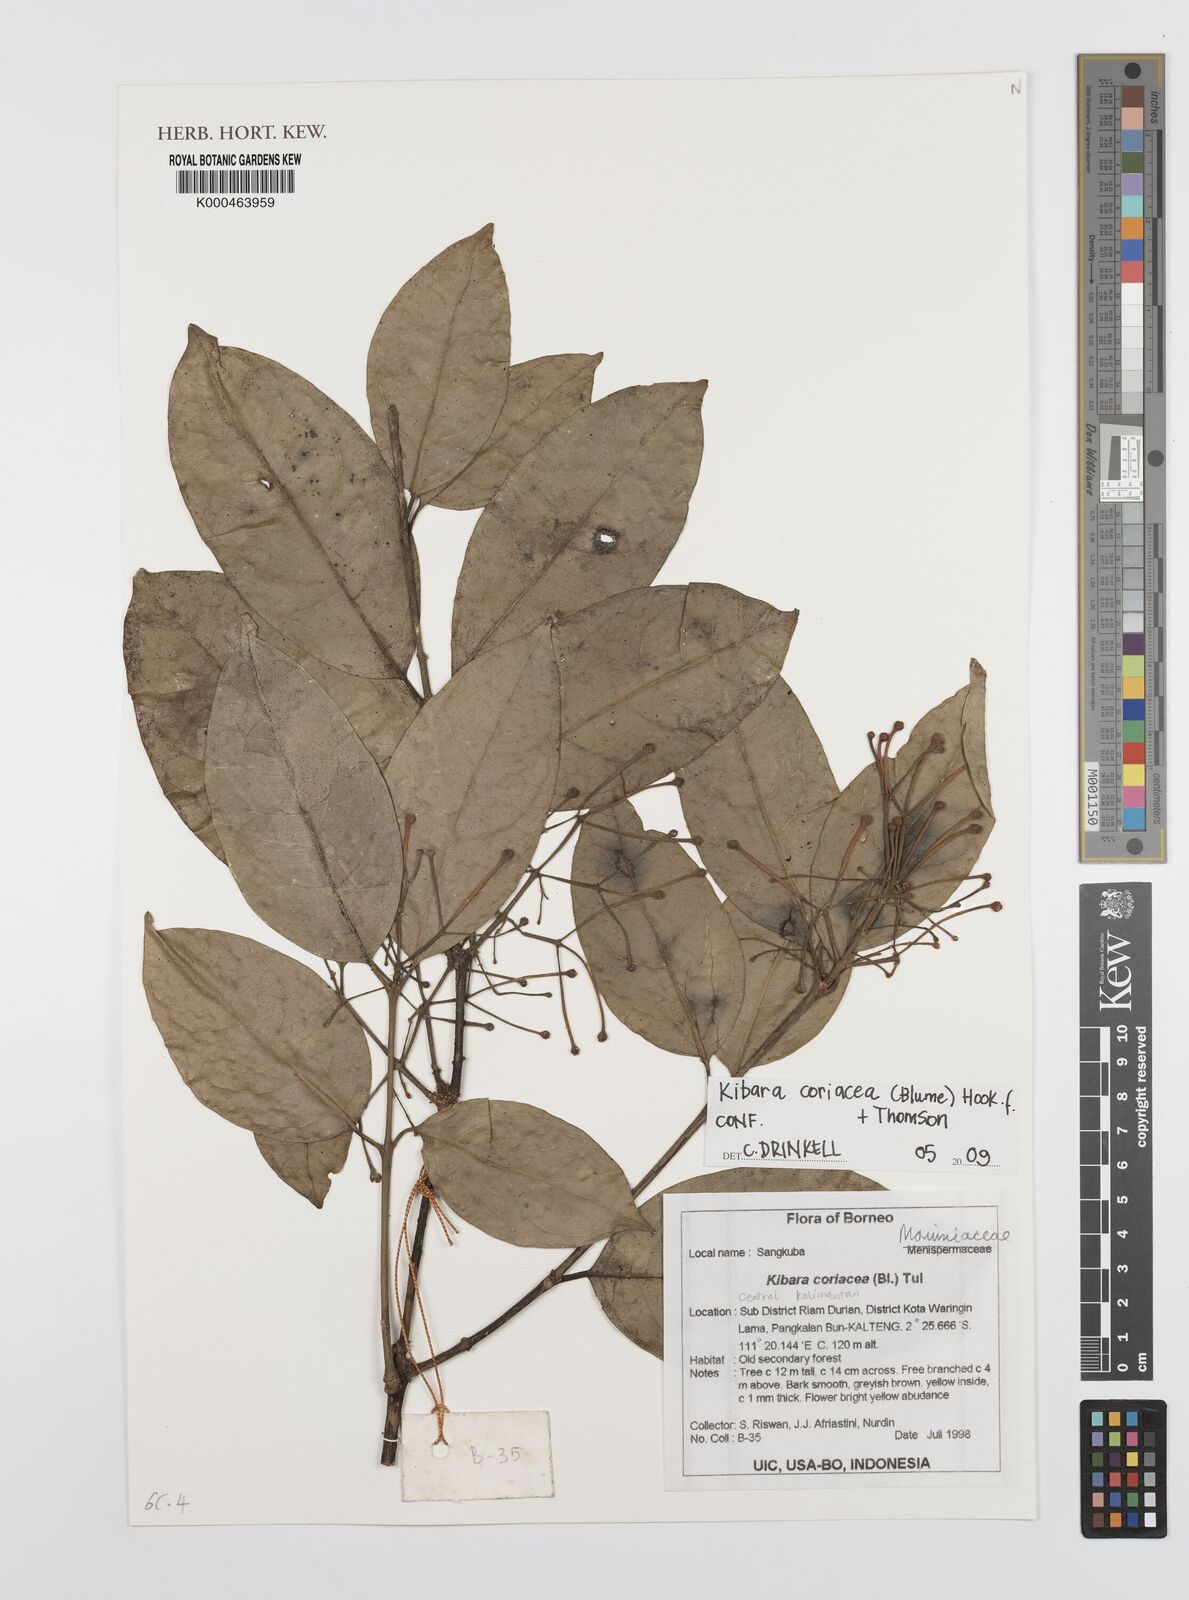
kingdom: Plantae
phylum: Tracheophyta
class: Magnoliopsida
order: Laurales
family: Monimiaceae
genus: Kibara
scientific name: Kibara coriacea
